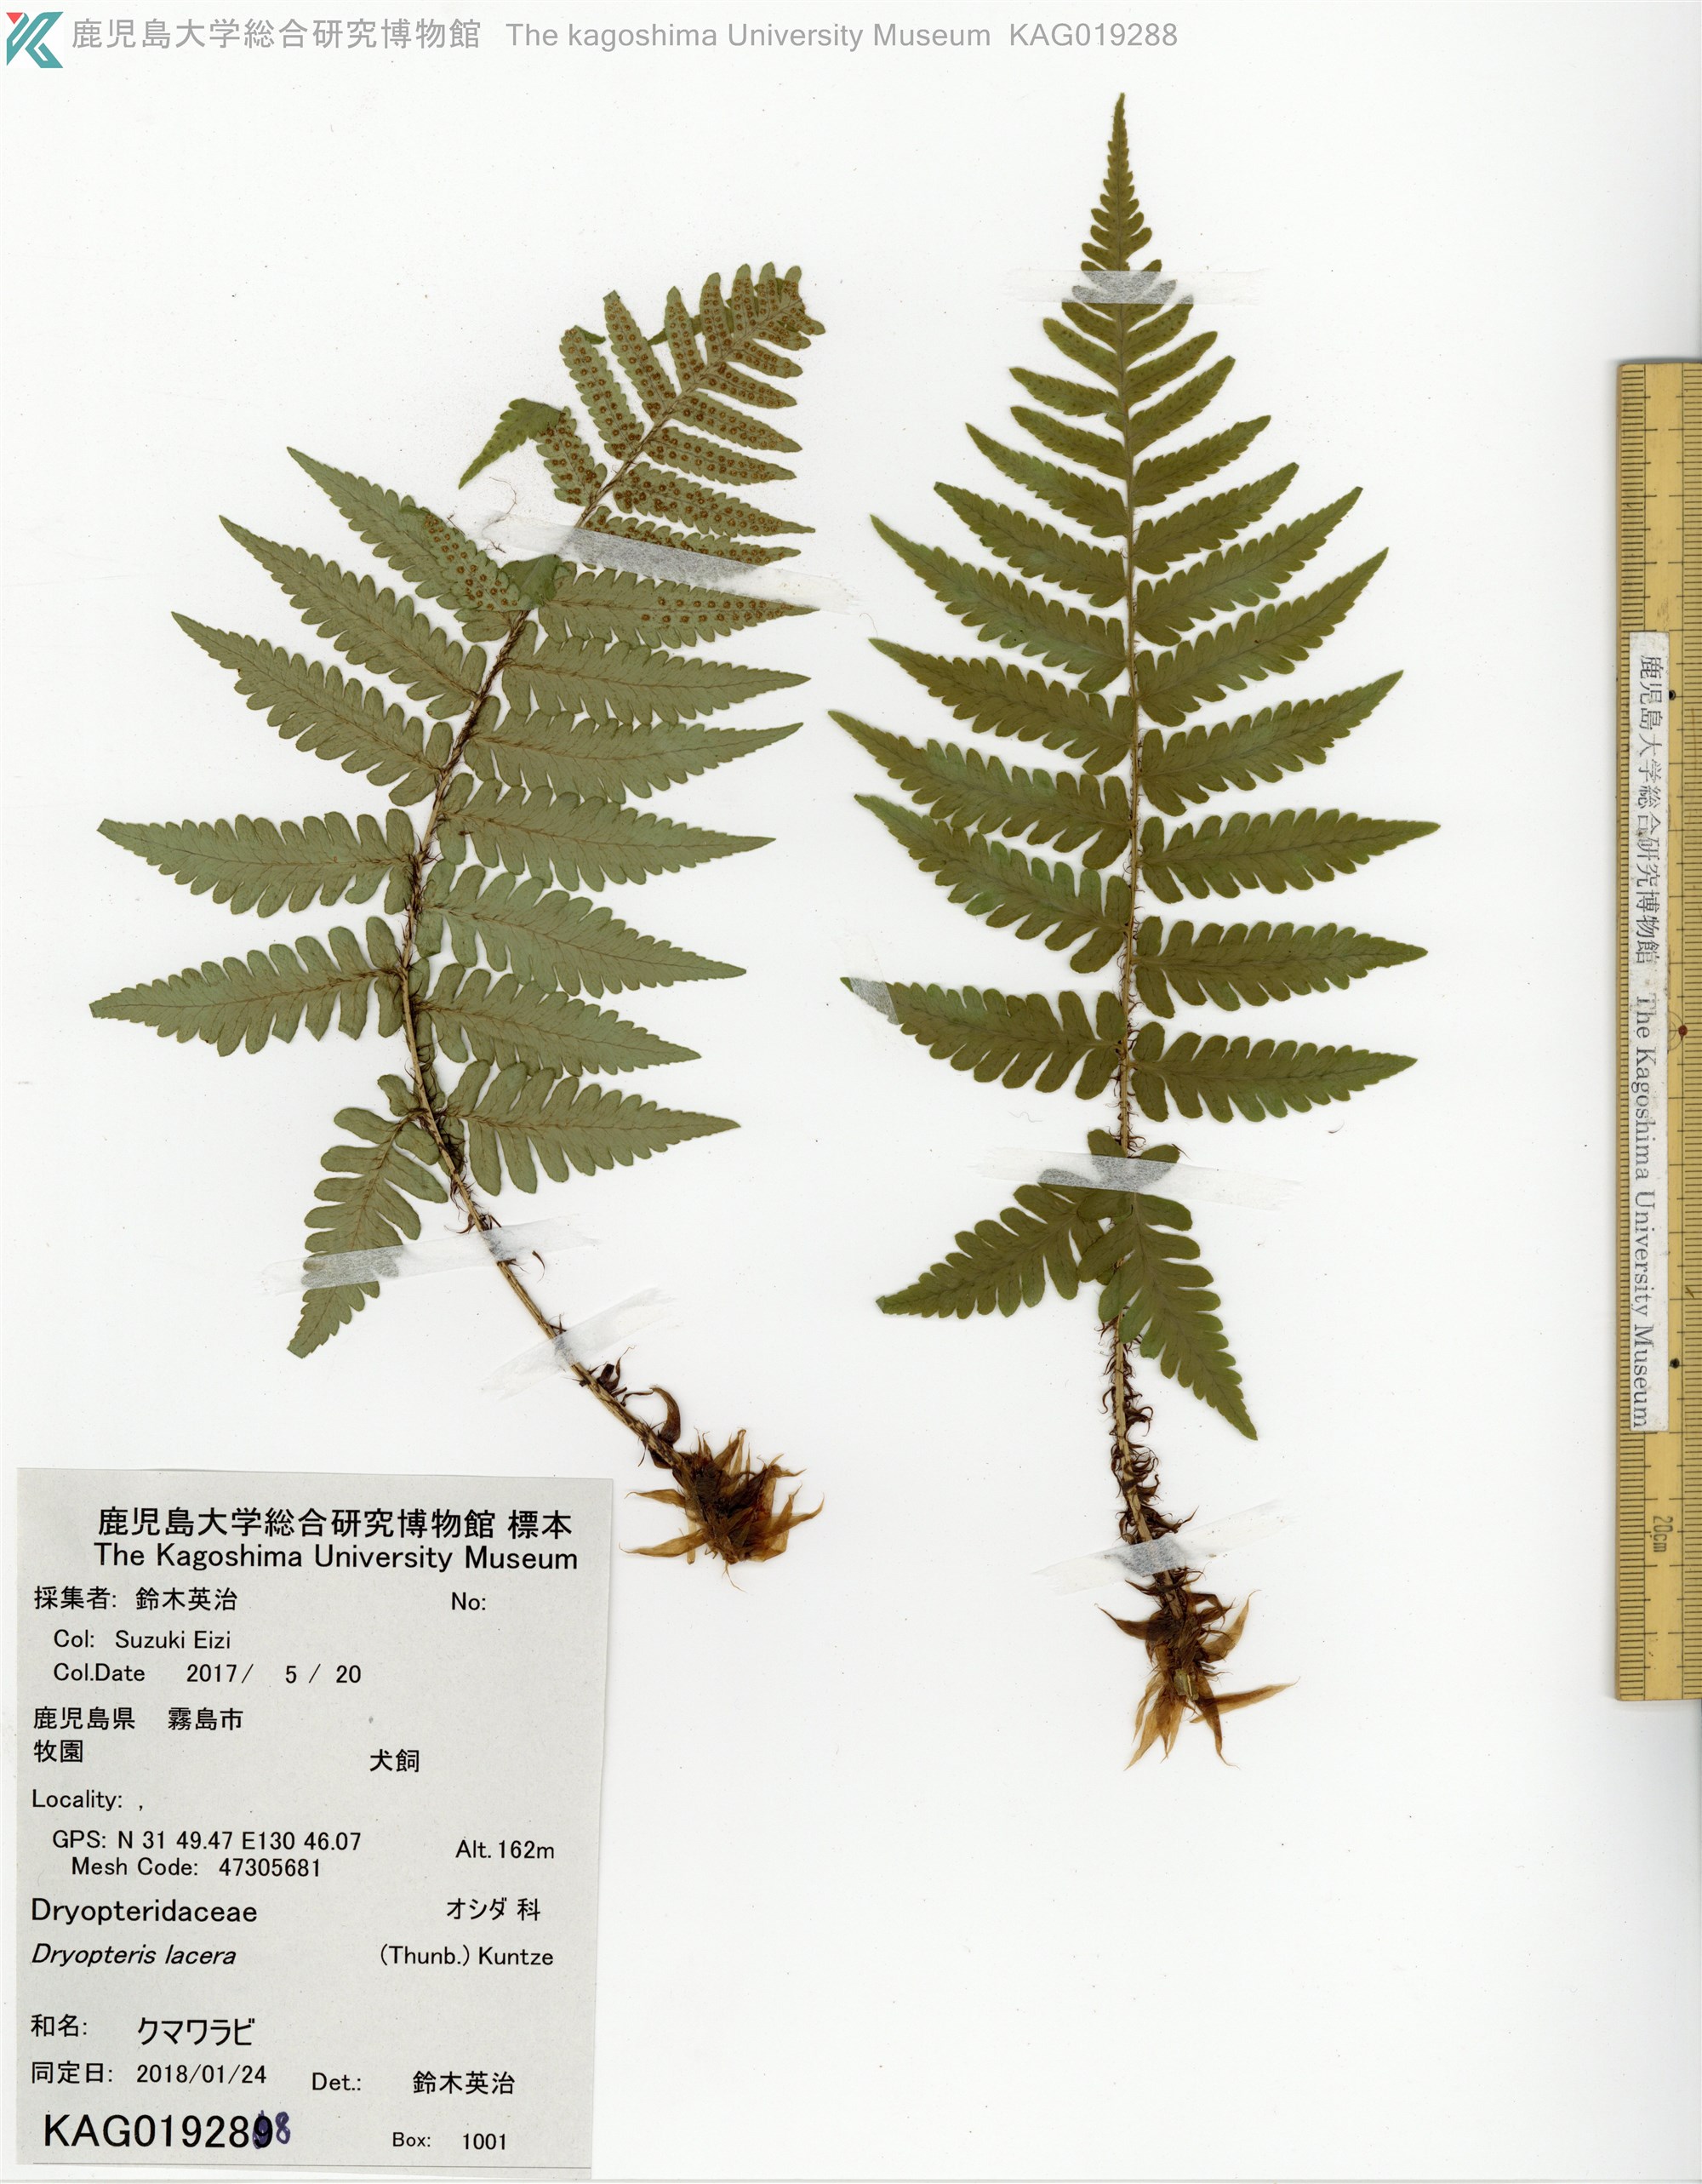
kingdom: Plantae
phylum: Tracheophyta
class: Polypodiopsida
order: Polypodiales
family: Dryopteridaceae
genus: Dryopteris
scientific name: Dryopteris lacera
